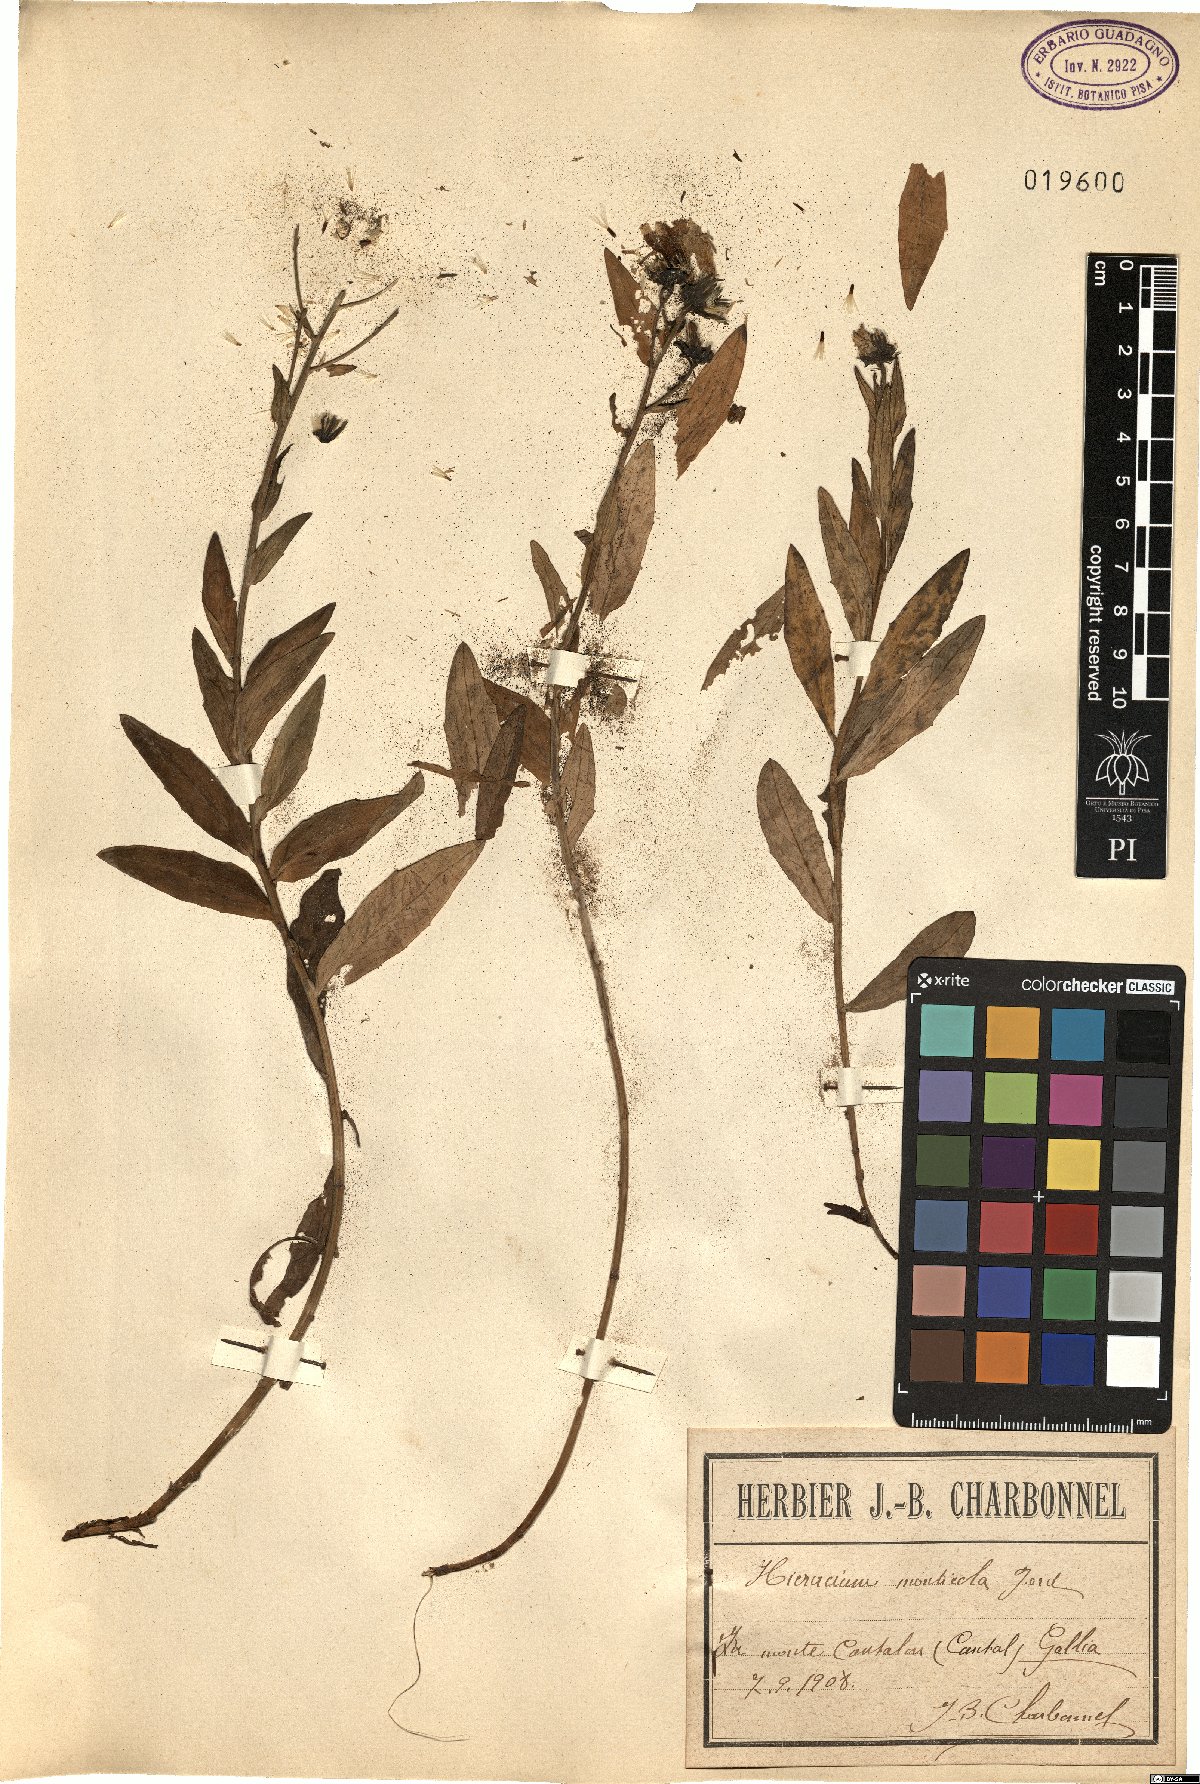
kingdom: Plantae
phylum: Tracheophyta
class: Magnoliopsida
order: Asterales
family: Asteraceae
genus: Hieracium
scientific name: Hieracium umbellatum
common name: Northern hawkweed
